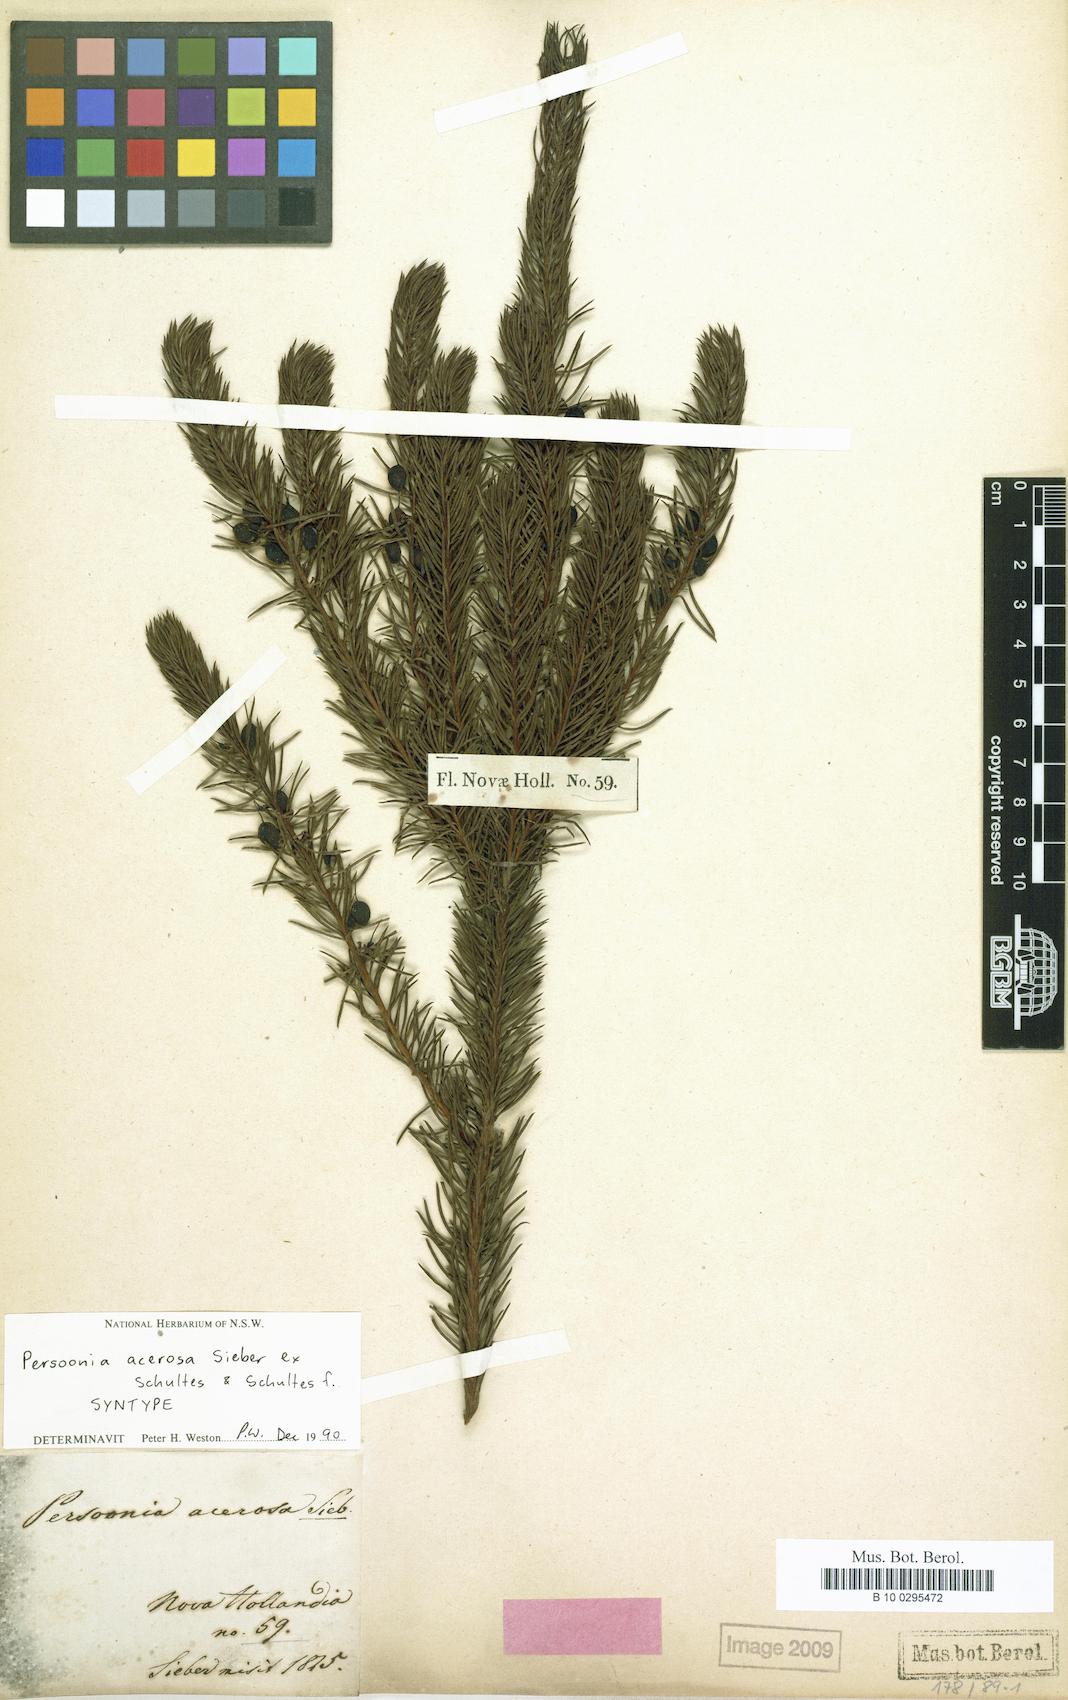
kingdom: Plantae
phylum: Tracheophyta
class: Magnoliopsida
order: Proteales
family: Proteaceae
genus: Persoonia
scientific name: Persoonia acerosa
